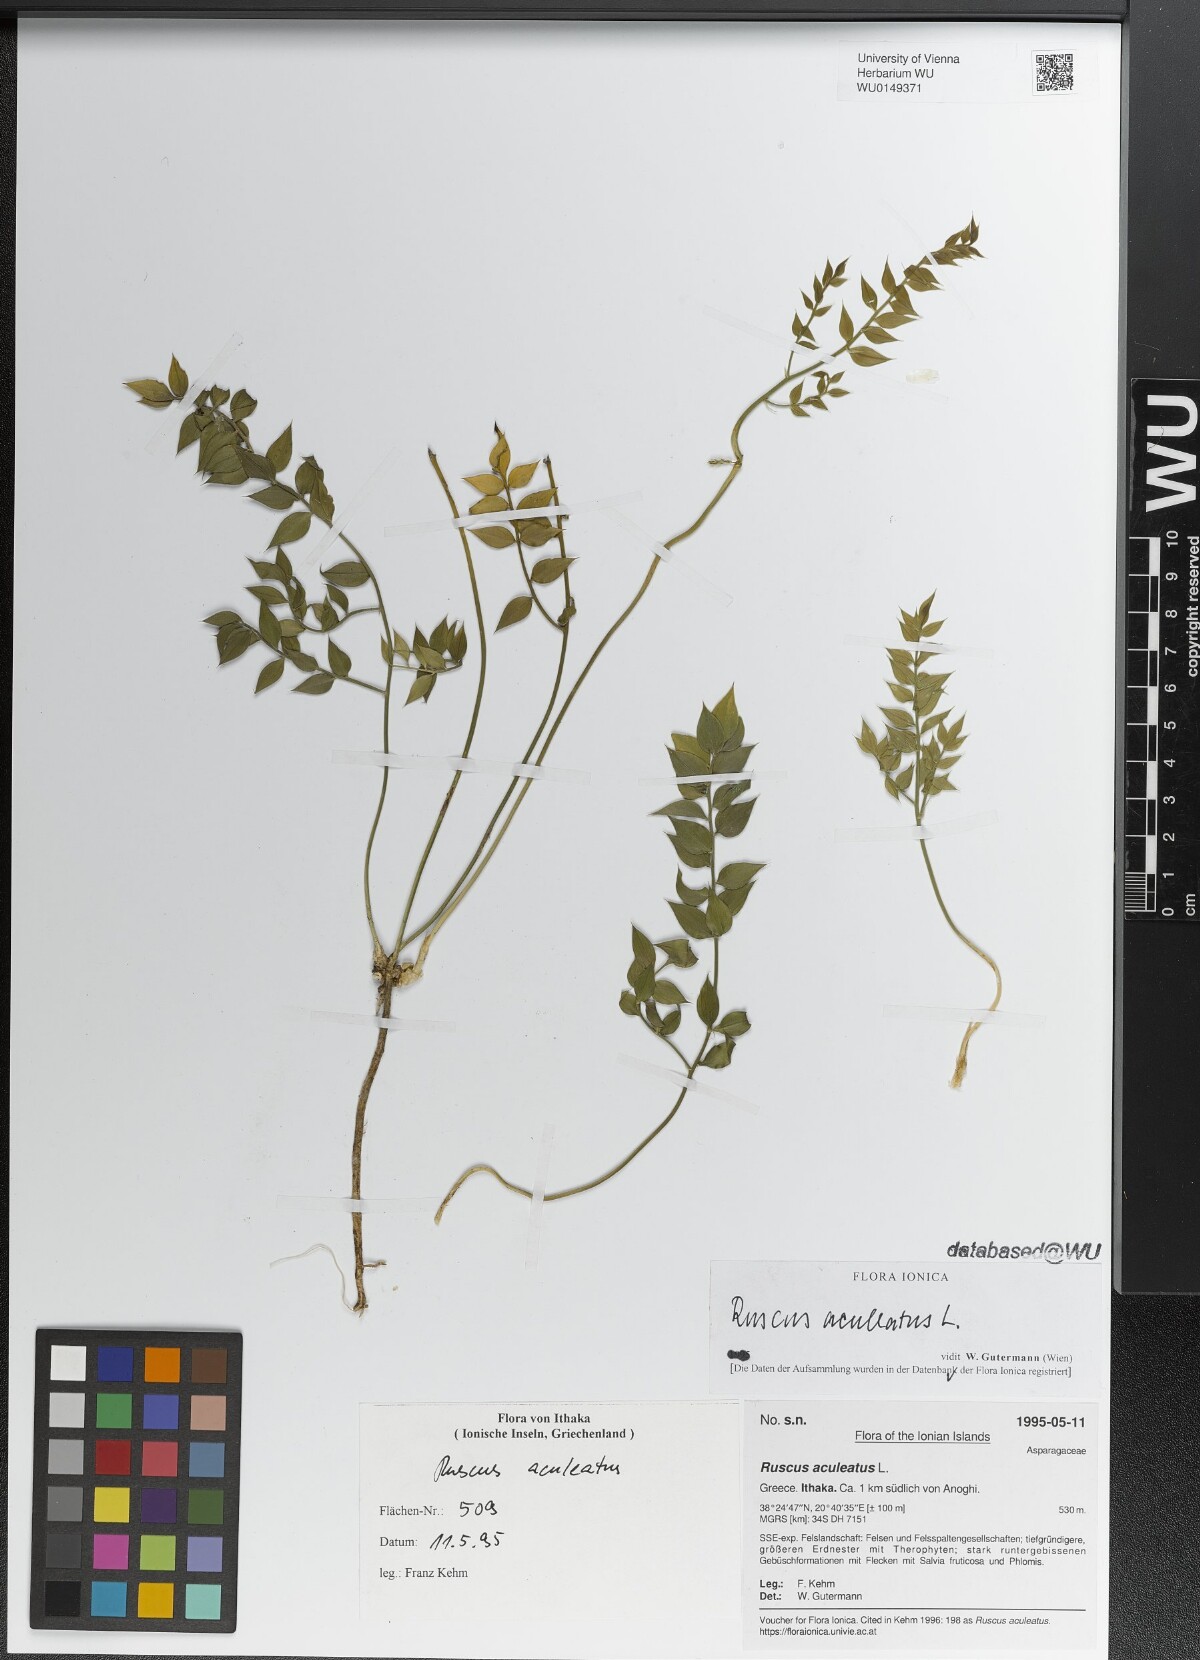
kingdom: Plantae
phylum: Tracheophyta
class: Liliopsida
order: Asparagales
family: Asparagaceae
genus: Ruscus
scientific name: Ruscus aculeatus
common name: Butcher's-broom
